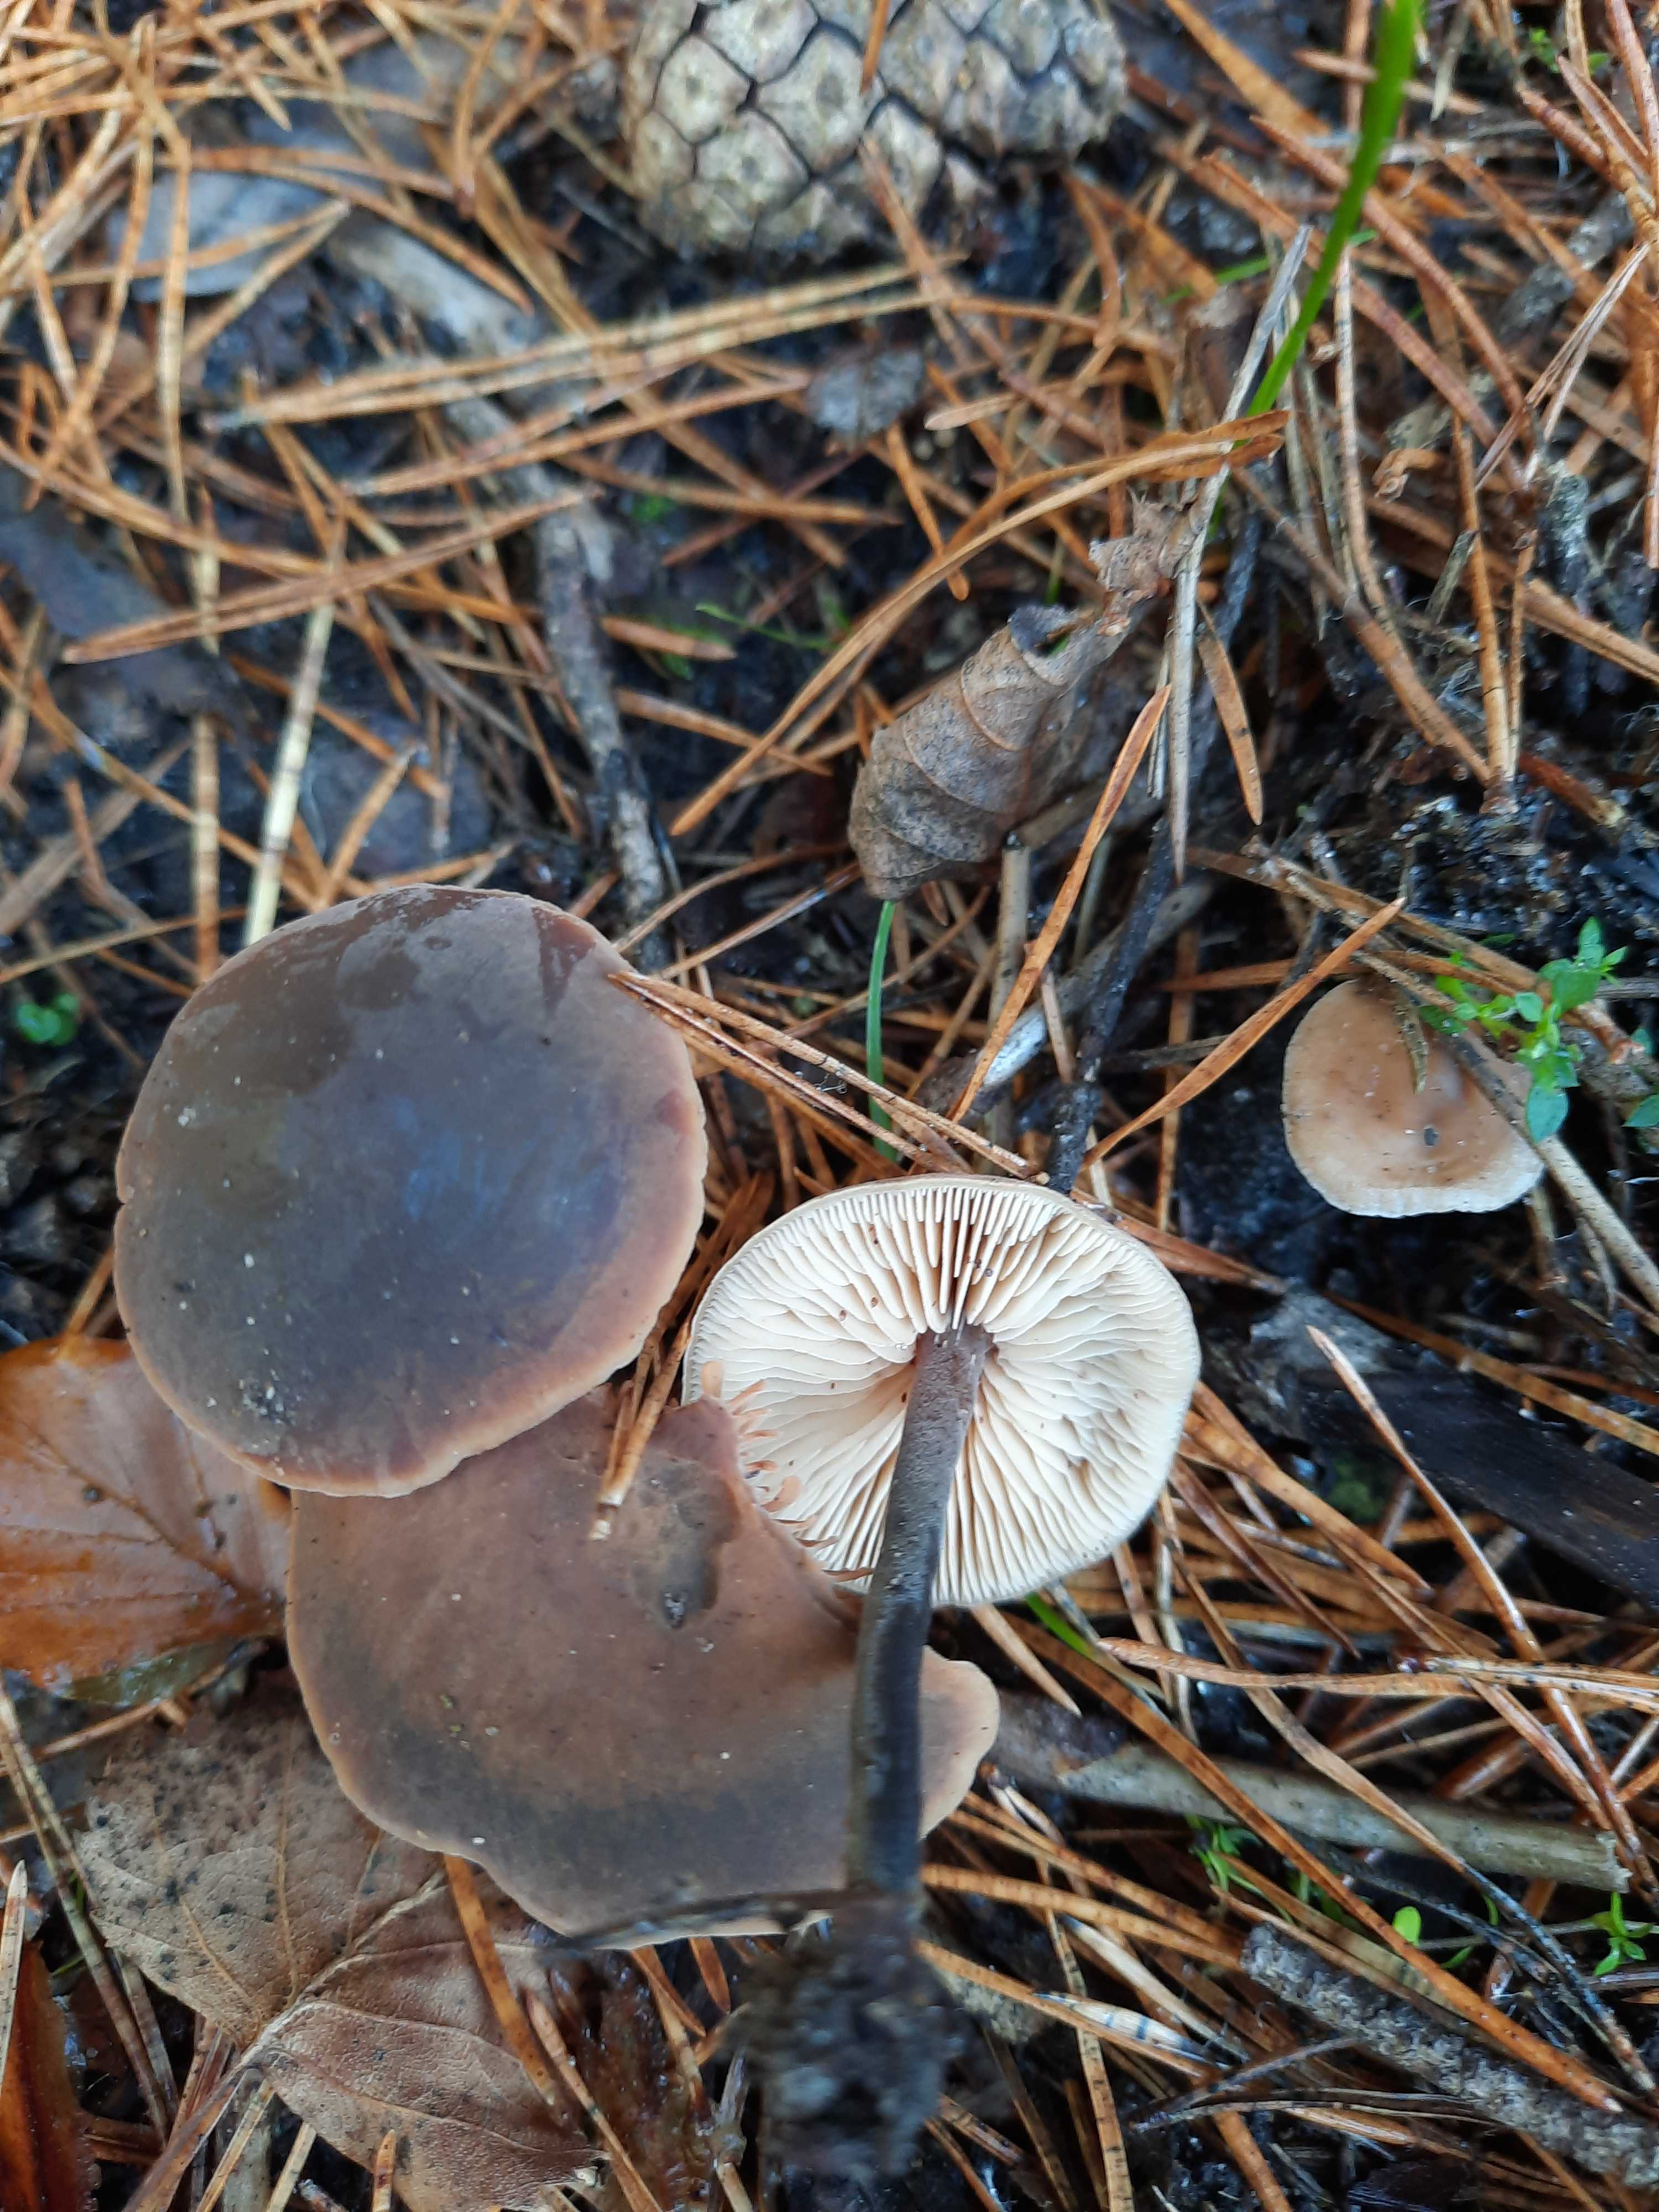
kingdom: Fungi
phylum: Basidiomycota
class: Agaricomycetes
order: Agaricales
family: Macrocystidiaceae
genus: Macrocystidia
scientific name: Macrocystidia cucumis
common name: agurkehat
